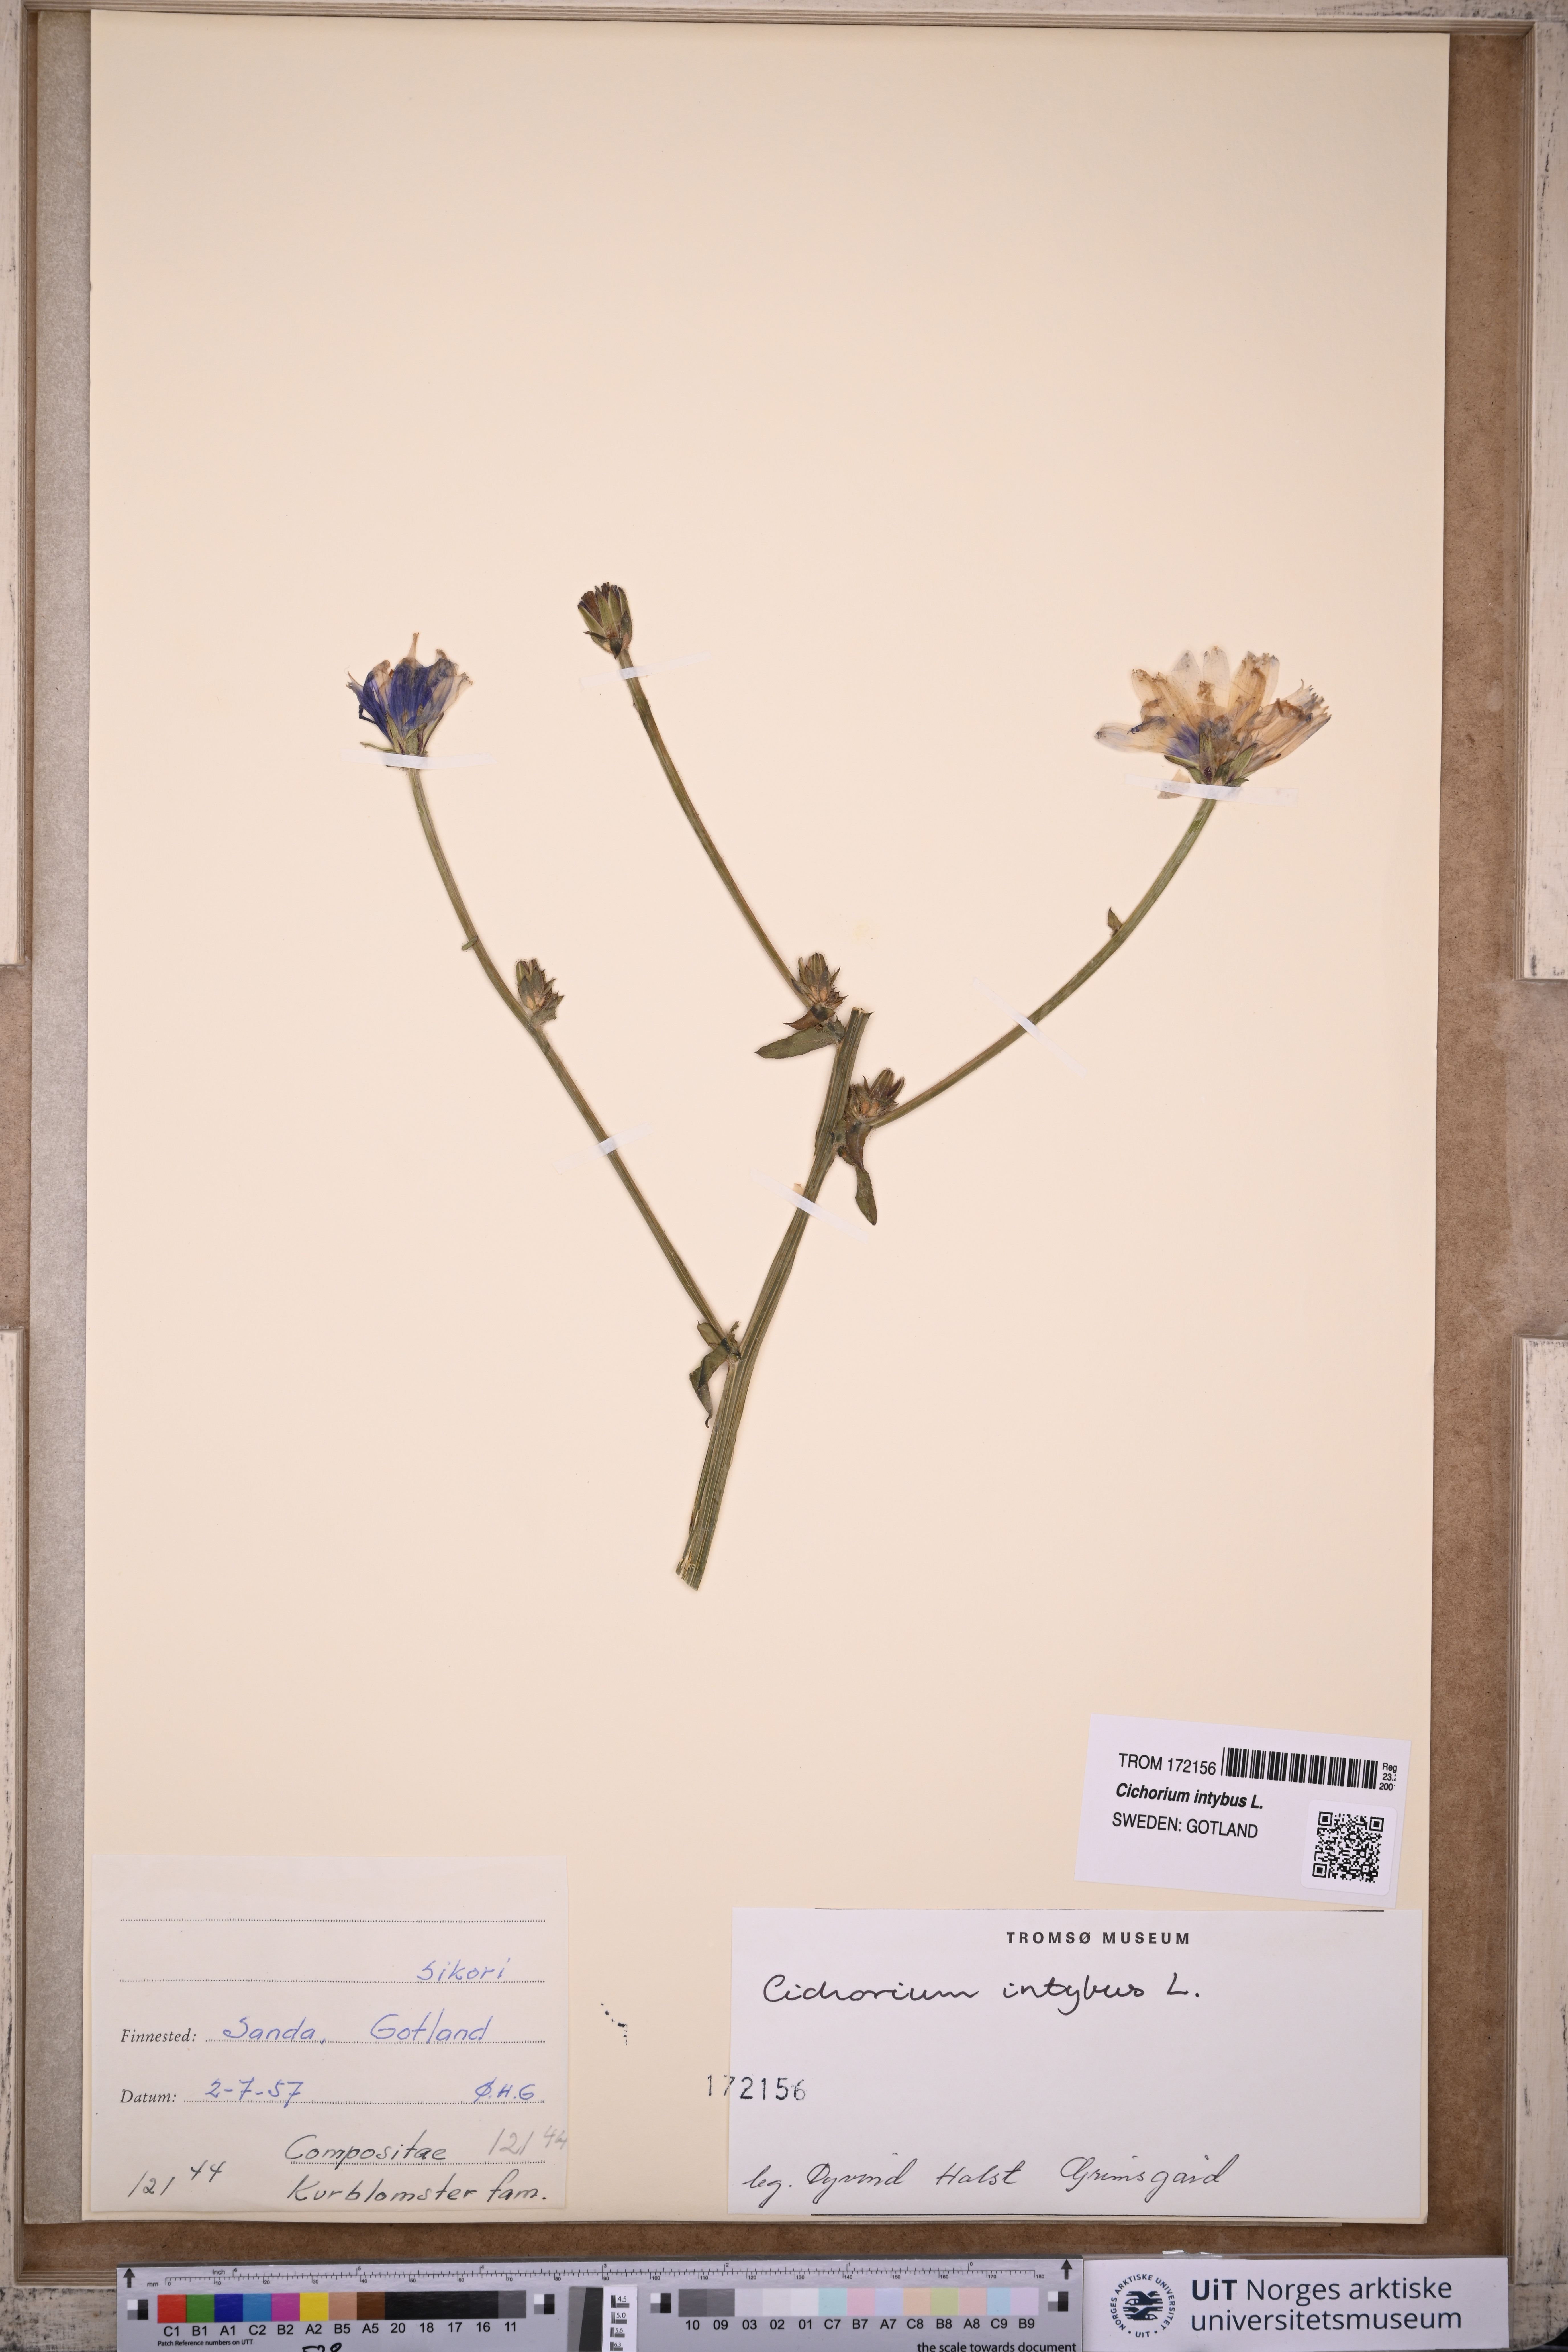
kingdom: Plantae
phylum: Tracheophyta
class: Magnoliopsida
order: Asterales
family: Asteraceae
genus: Cichorium
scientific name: Cichorium intybus
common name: Chicory
